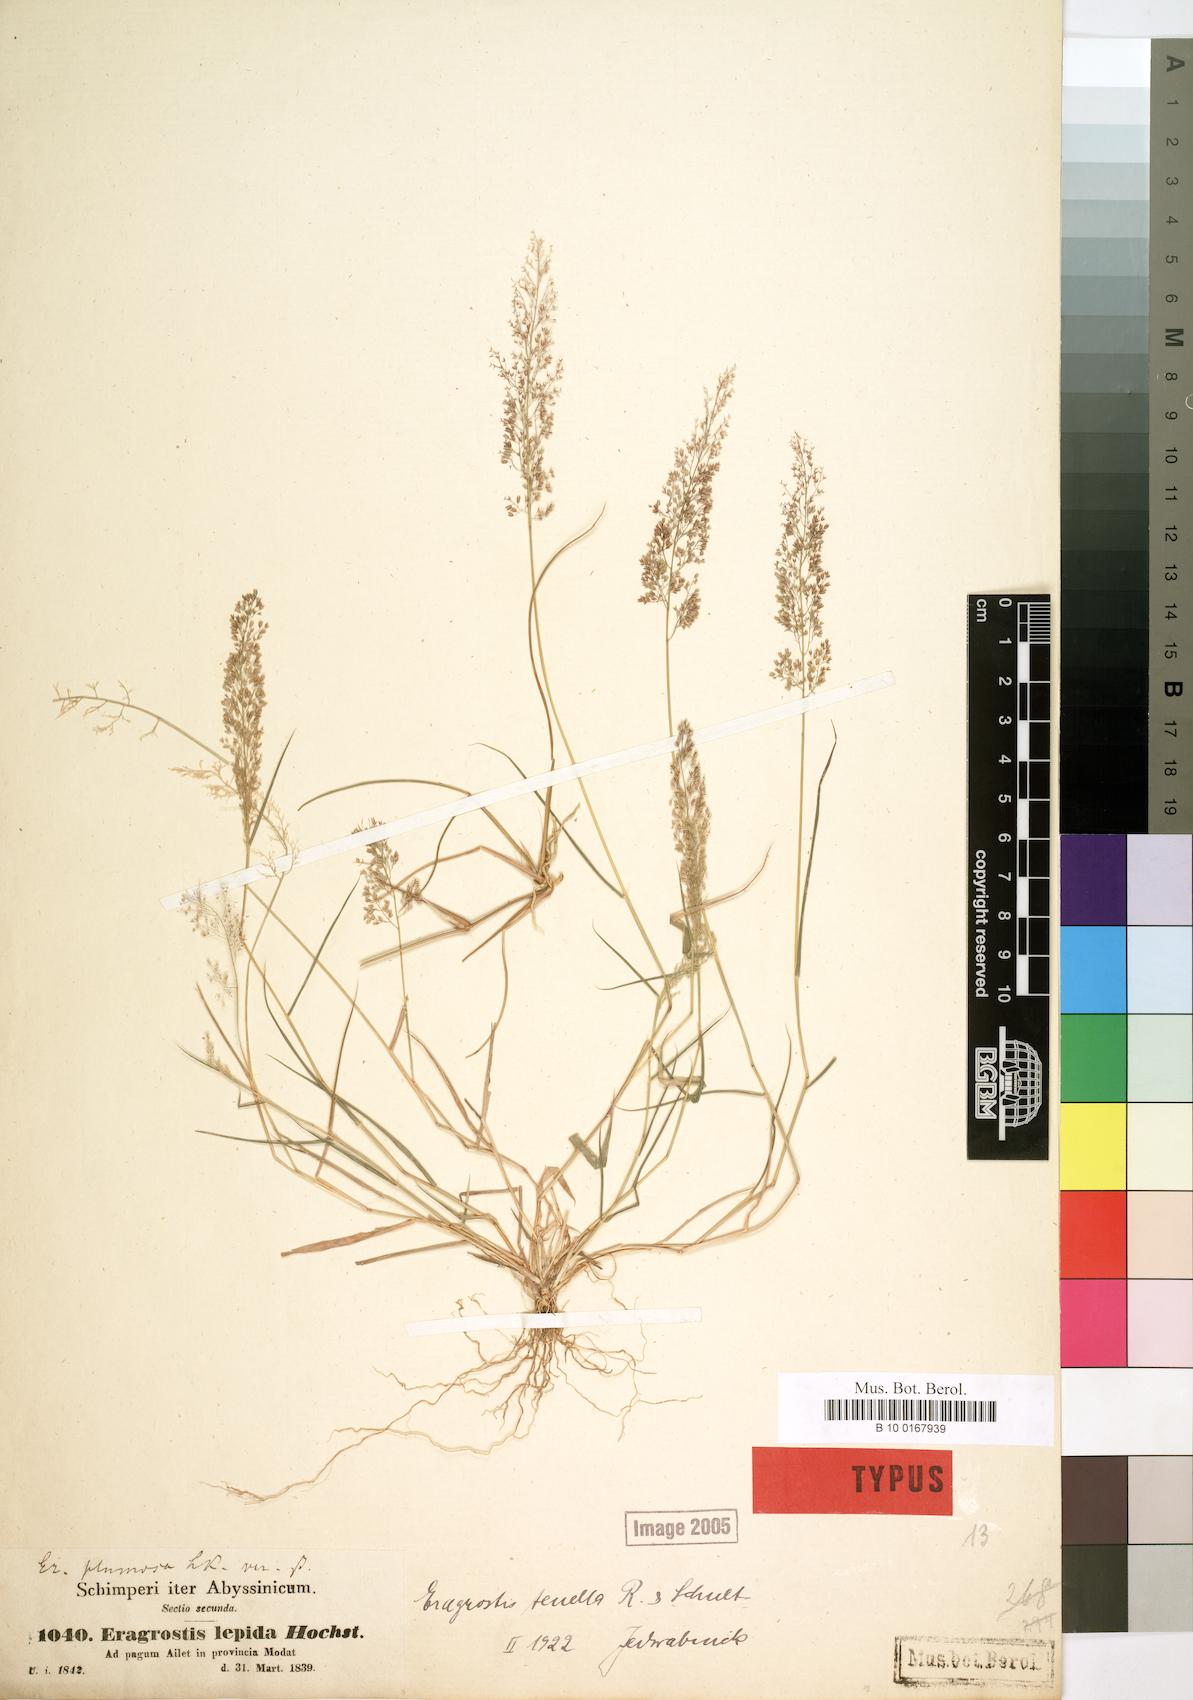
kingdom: Plantae
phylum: Tracheophyta
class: Liliopsida
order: Poales
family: Poaceae
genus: Eragrostis
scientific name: Eragrostis lepida
